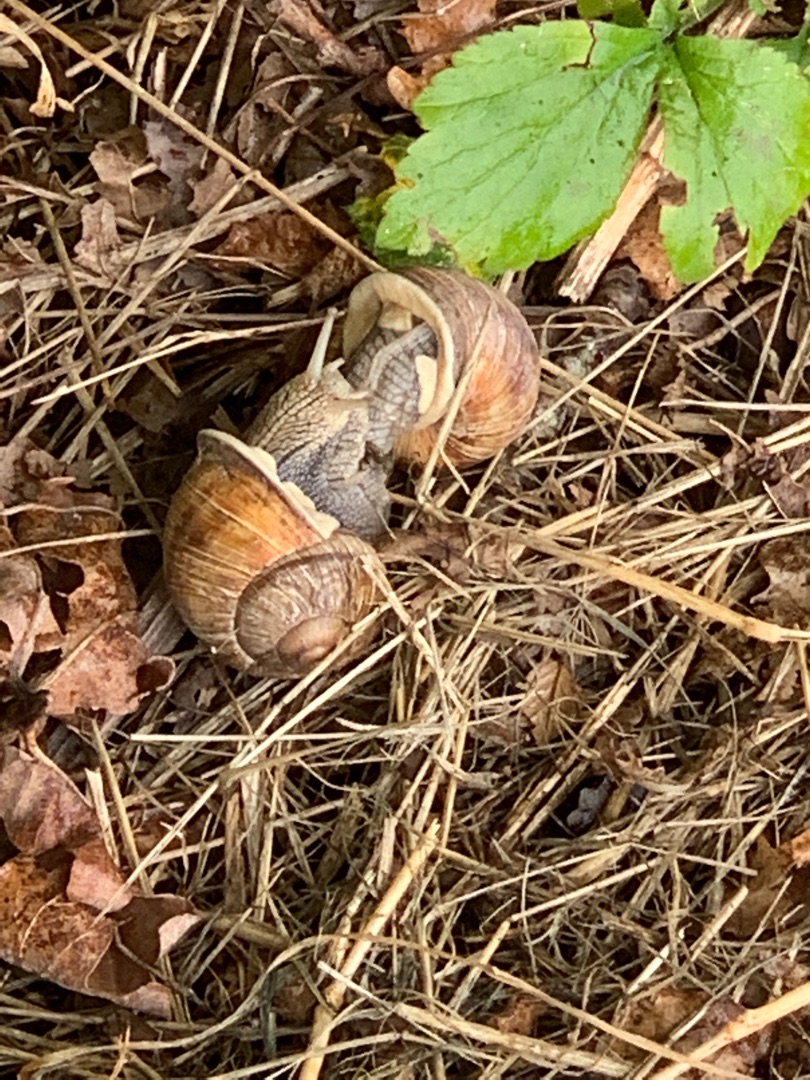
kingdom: Animalia
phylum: Mollusca
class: Gastropoda
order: Stylommatophora
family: Helicidae
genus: Helix
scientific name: Helix pomatia
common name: Vinbjergsnegl
